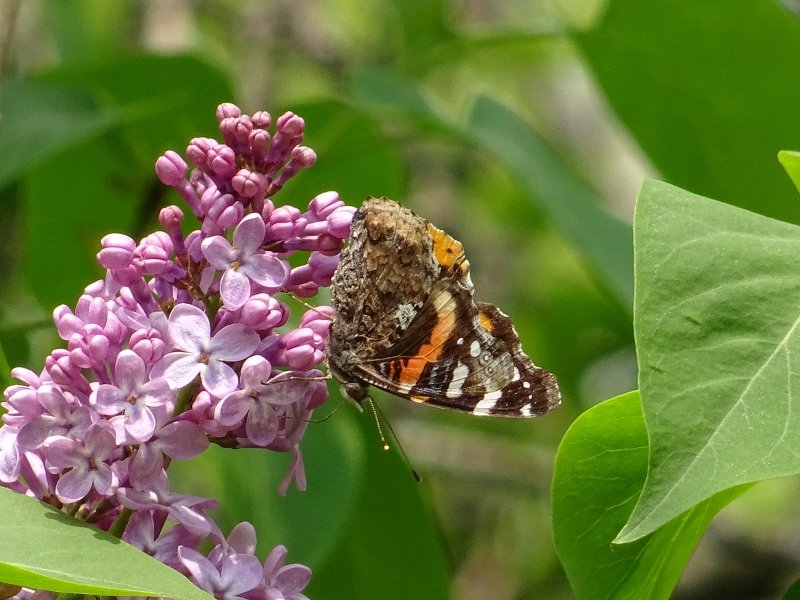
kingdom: Animalia
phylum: Arthropoda
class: Insecta
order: Lepidoptera
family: Nymphalidae
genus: Vanessa
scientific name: Vanessa atalanta
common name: Red Admiral
